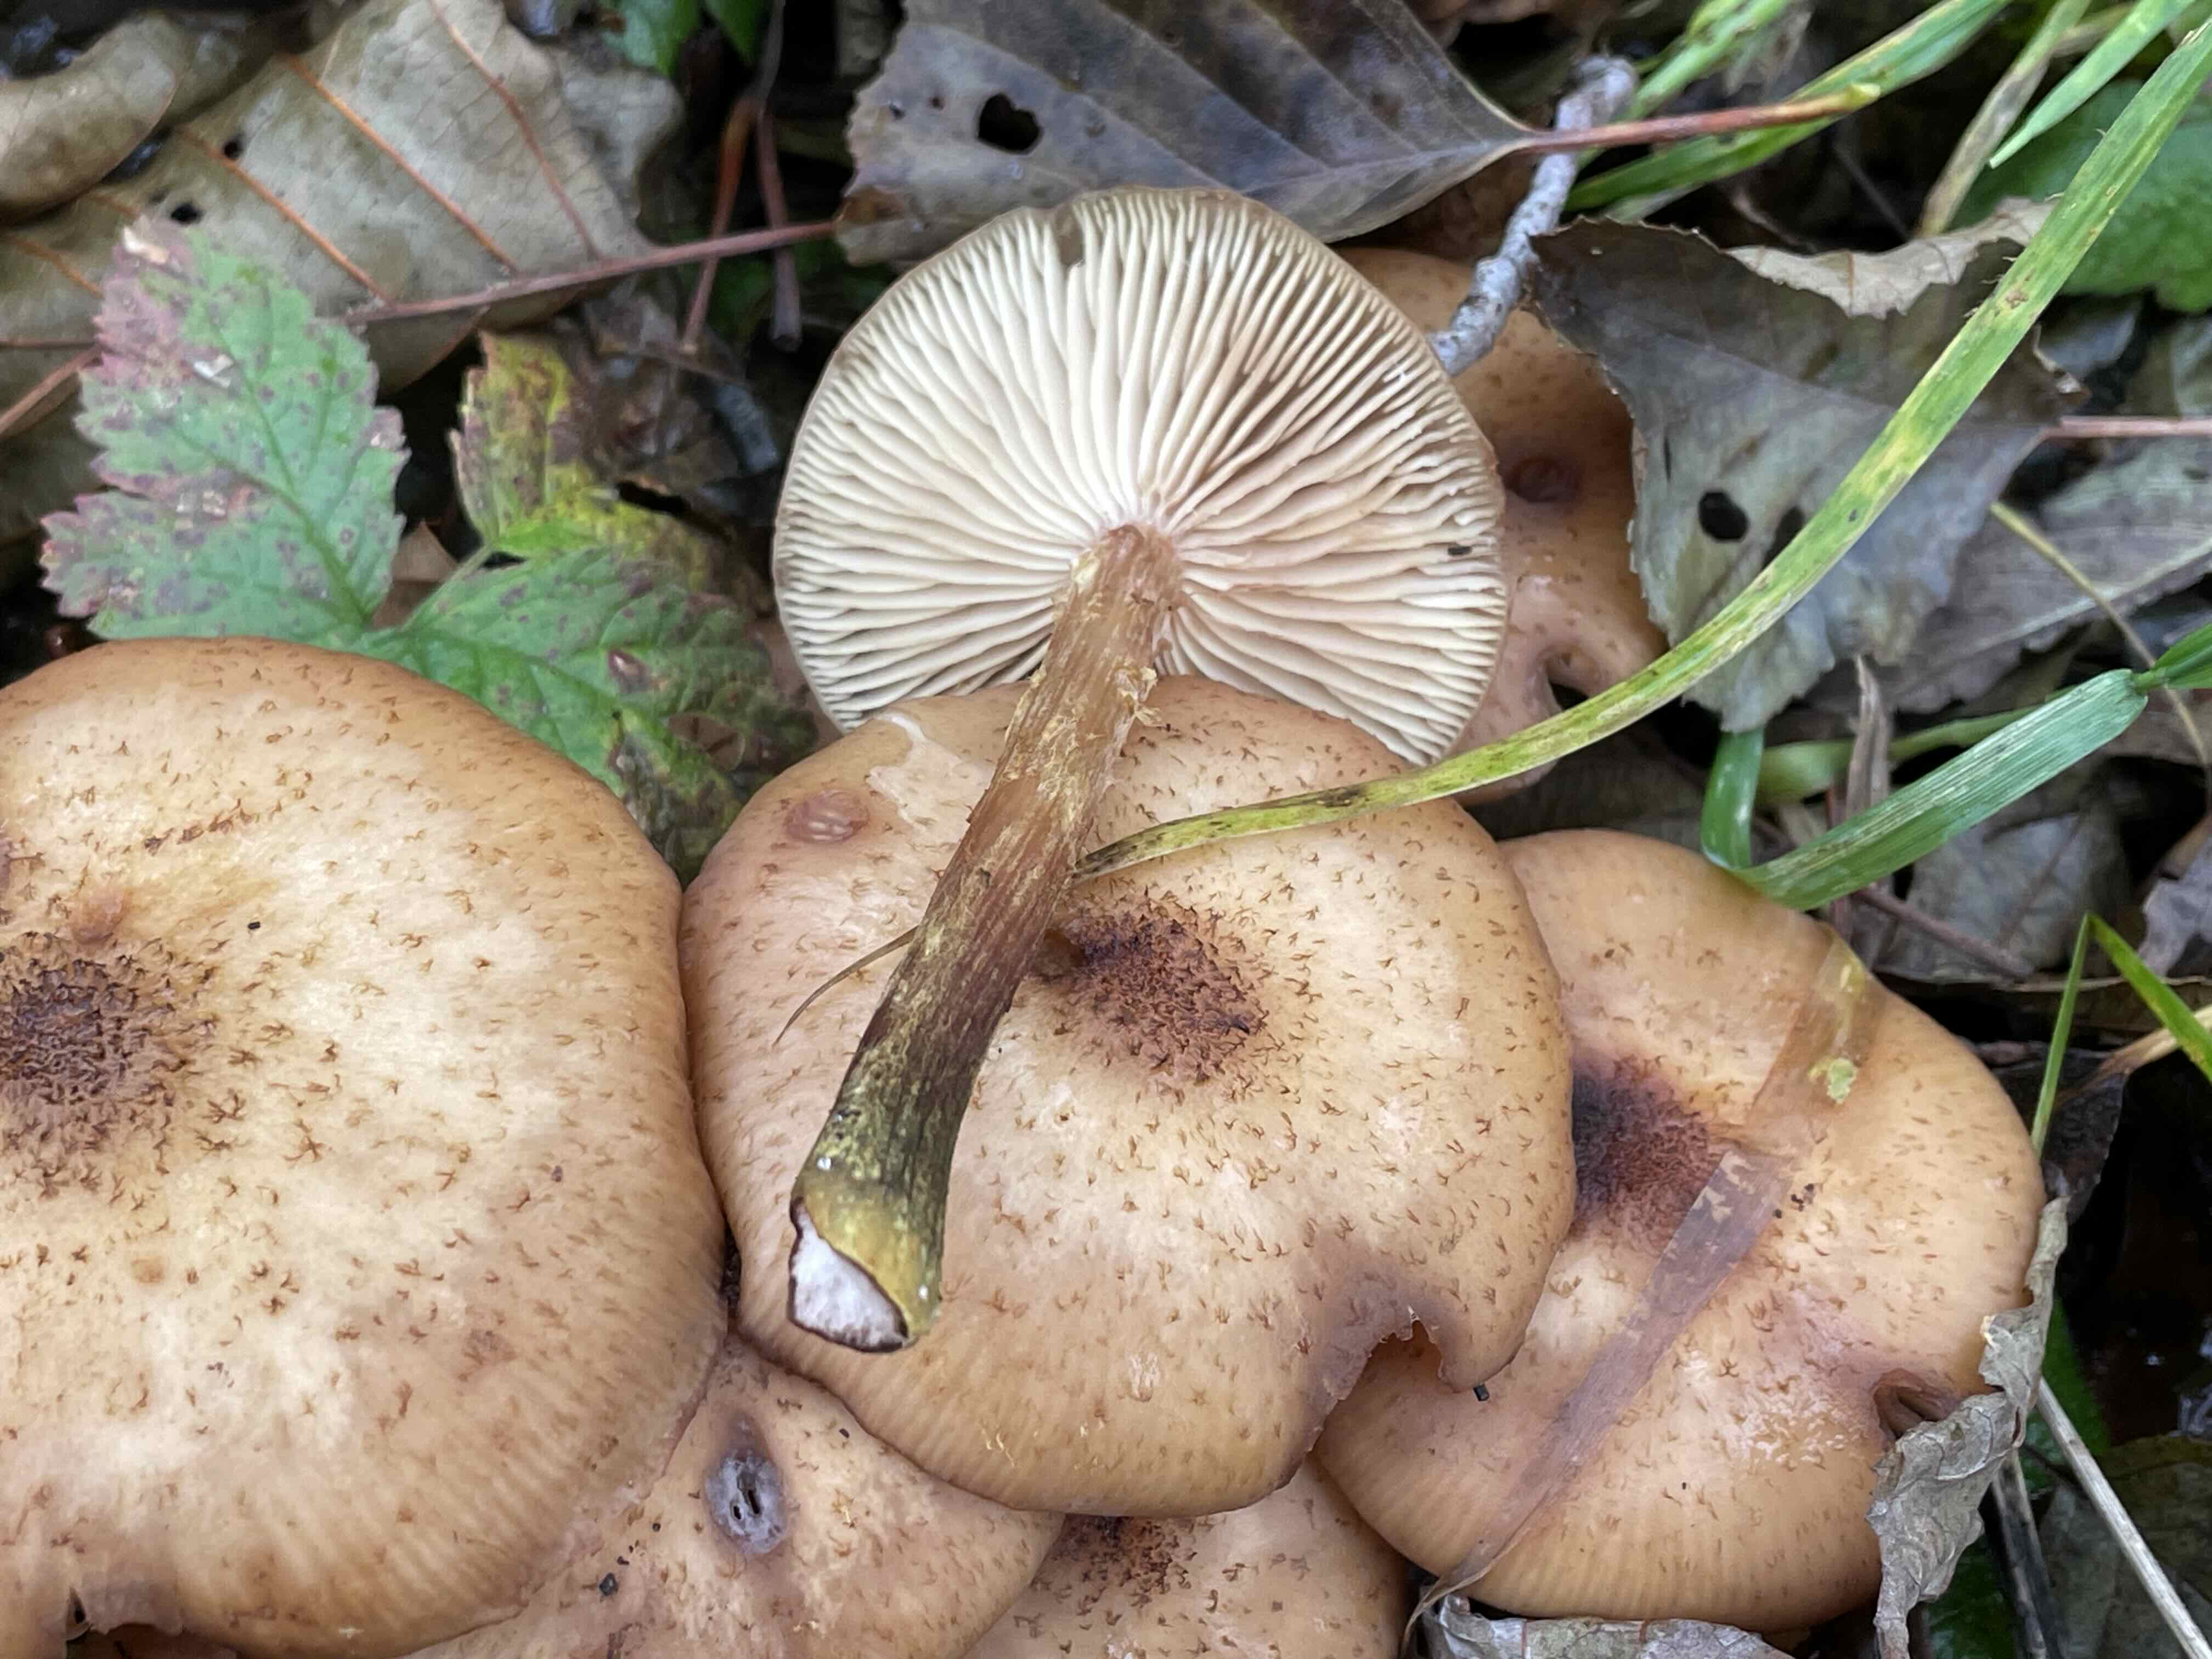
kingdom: Fungi
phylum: Basidiomycota
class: Agaricomycetes
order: Agaricales
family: Physalacriaceae
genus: Armillaria
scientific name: Armillaria lutea
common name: køllestokket honningsvamp
